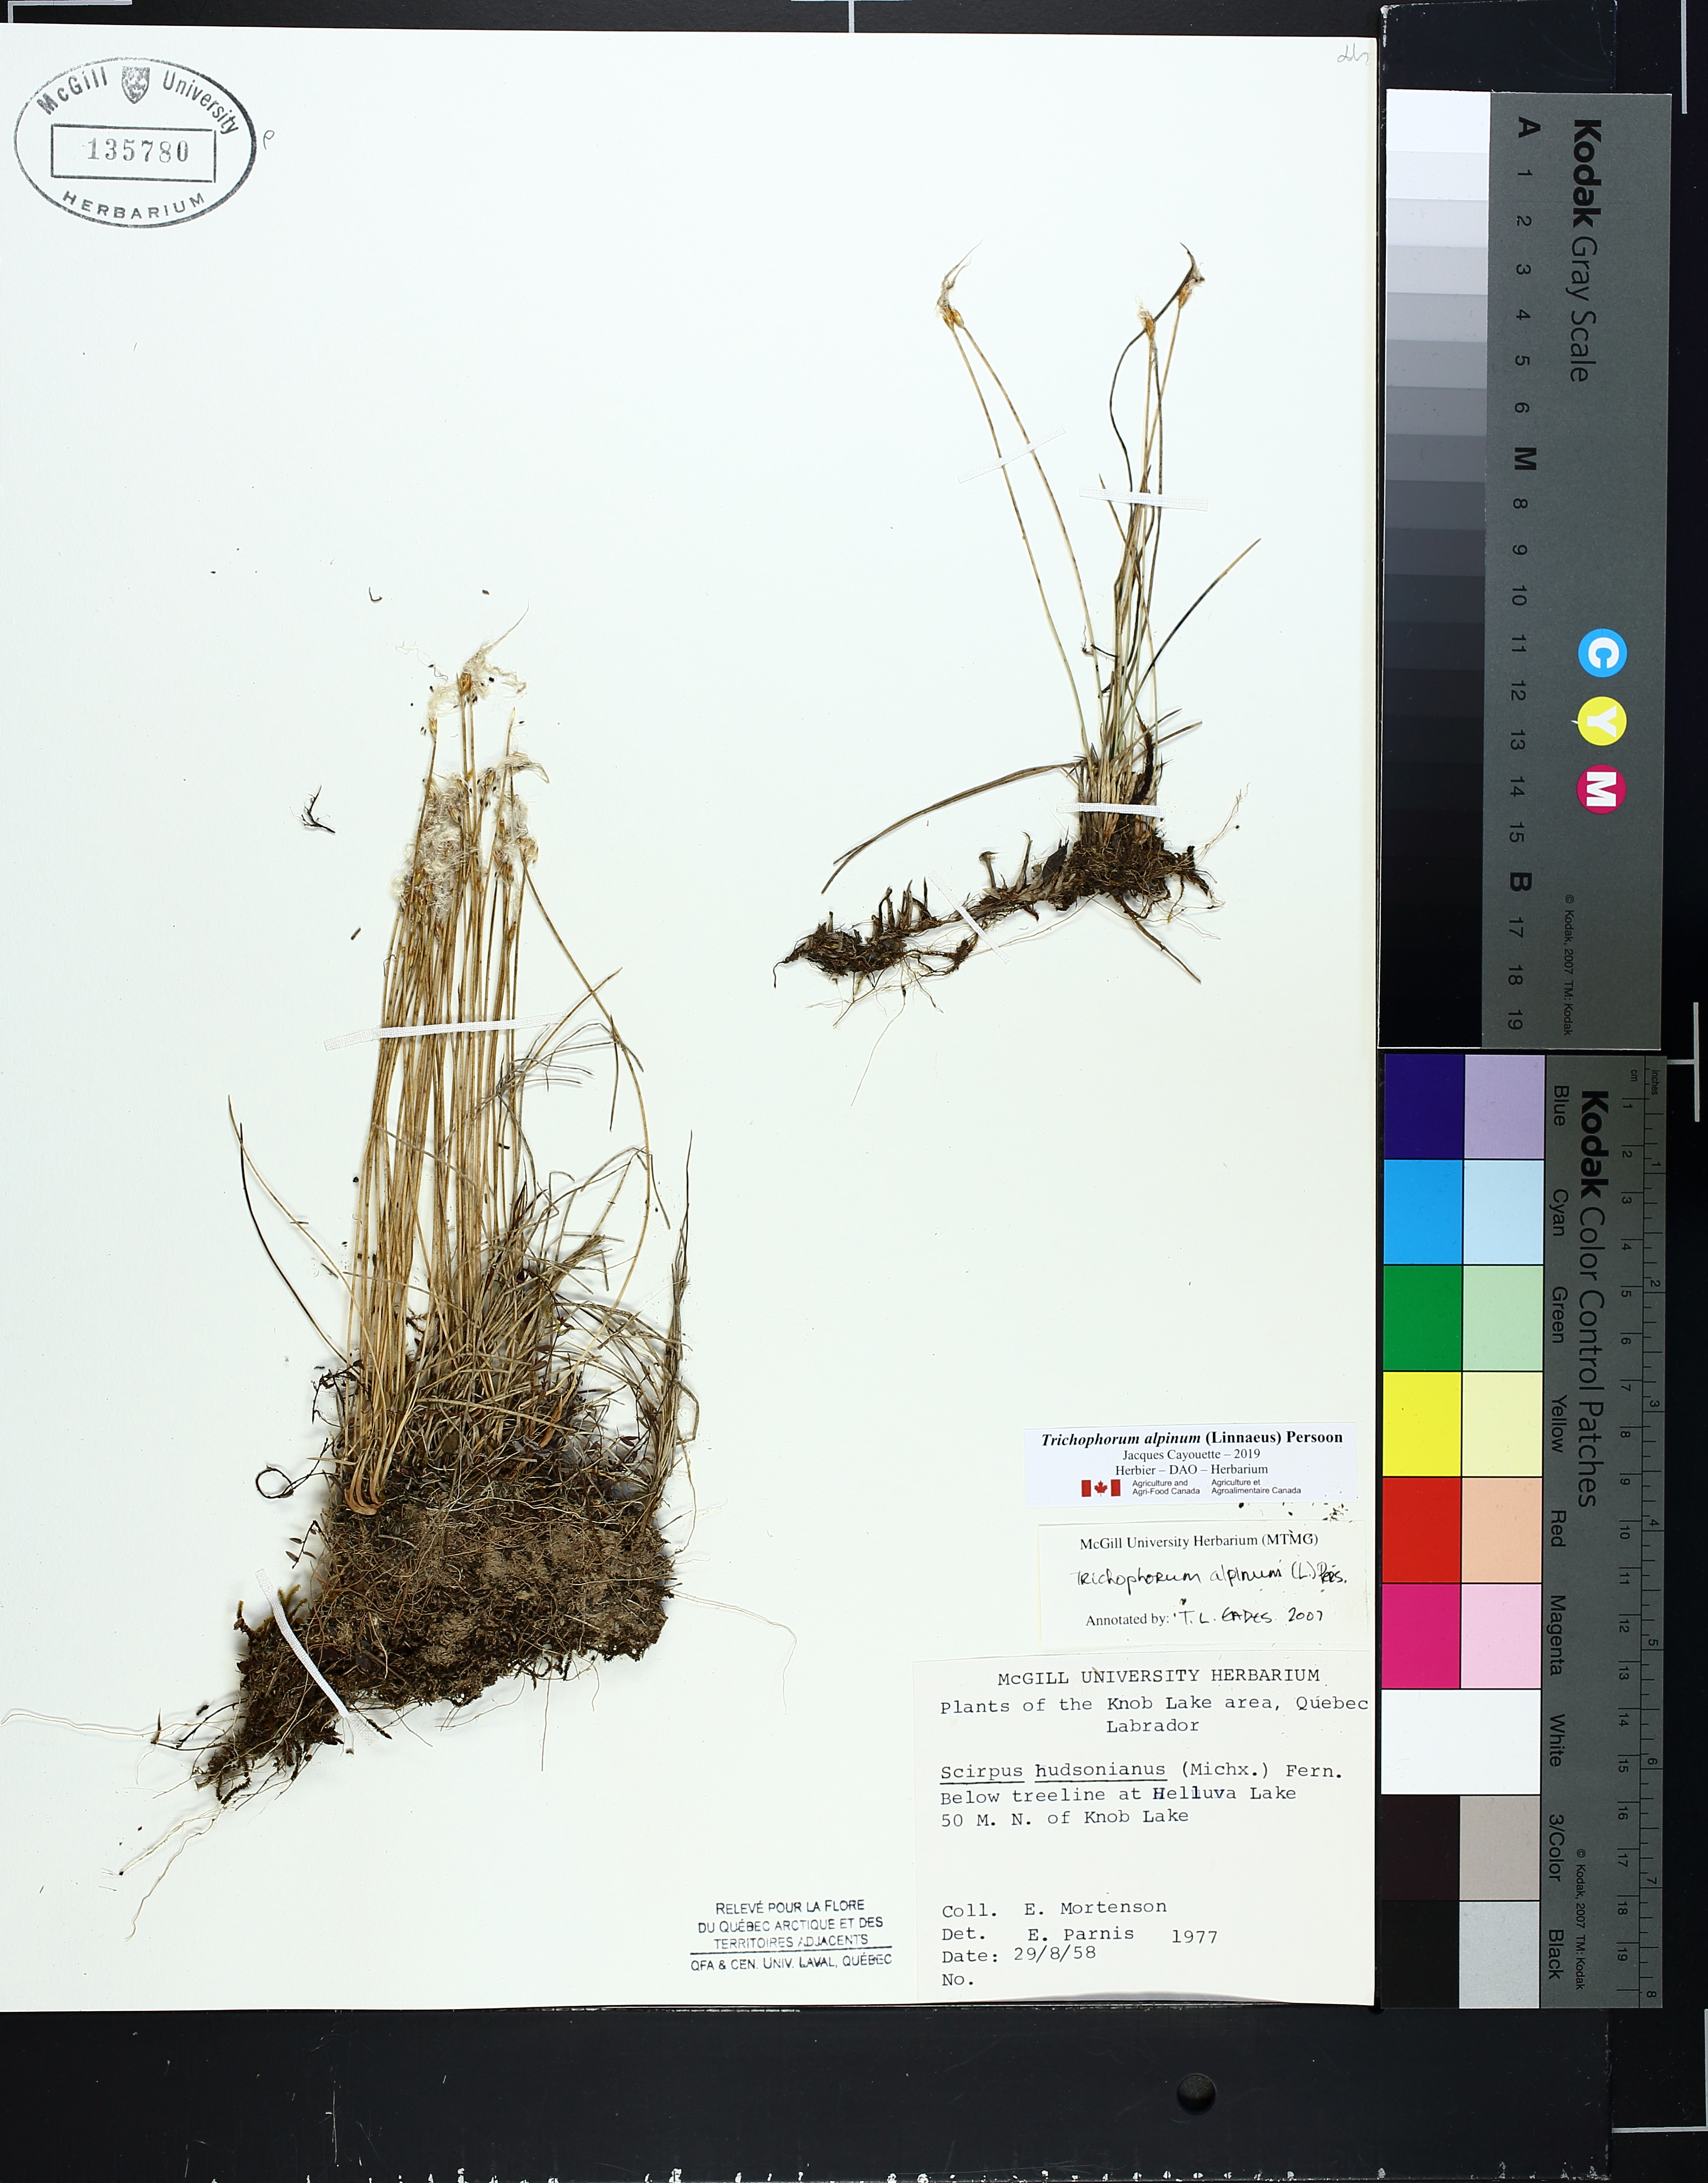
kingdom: Plantae
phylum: Tracheophyta
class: Liliopsida
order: Poales
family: Cyperaceae
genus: Trichophorum
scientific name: Trichophorum alpinum
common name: Alpine bulrush
